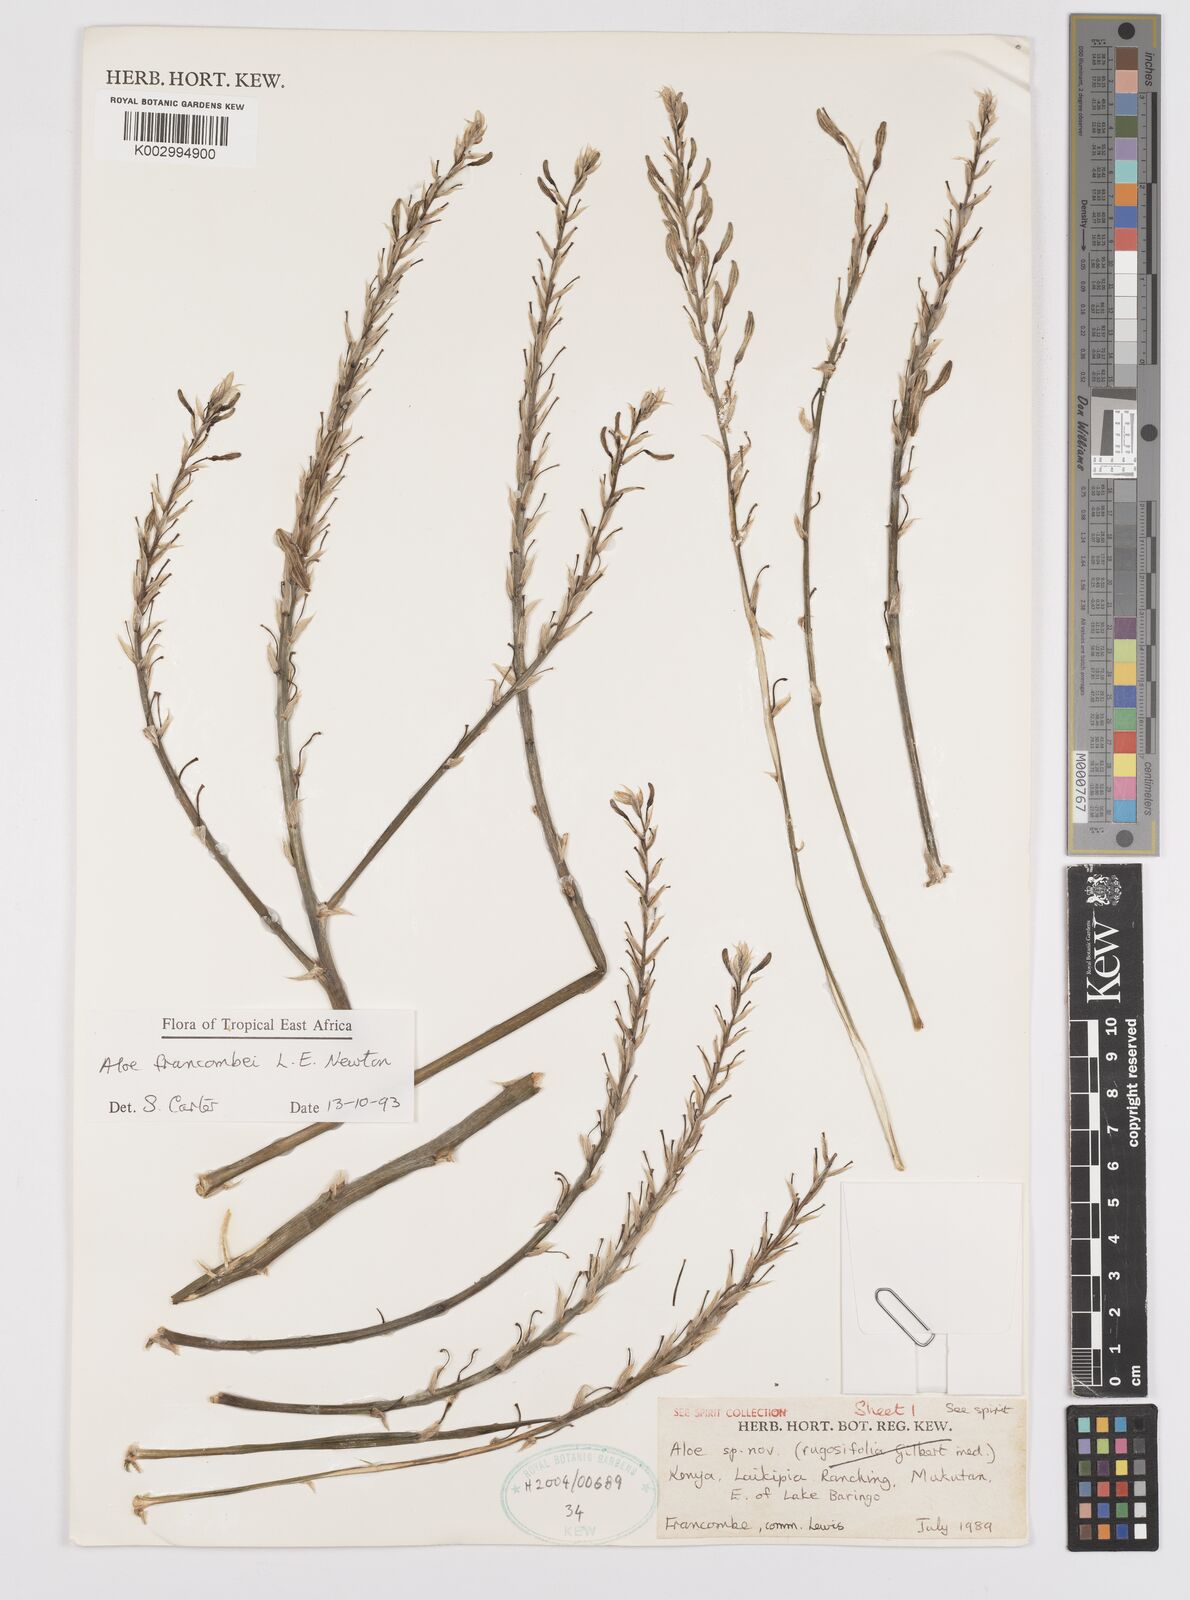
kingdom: Plantae
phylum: Tracheophyta
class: Liliopsida
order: Asparagales
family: Asphodelaceae
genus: Aloe
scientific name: Aloe francombei
